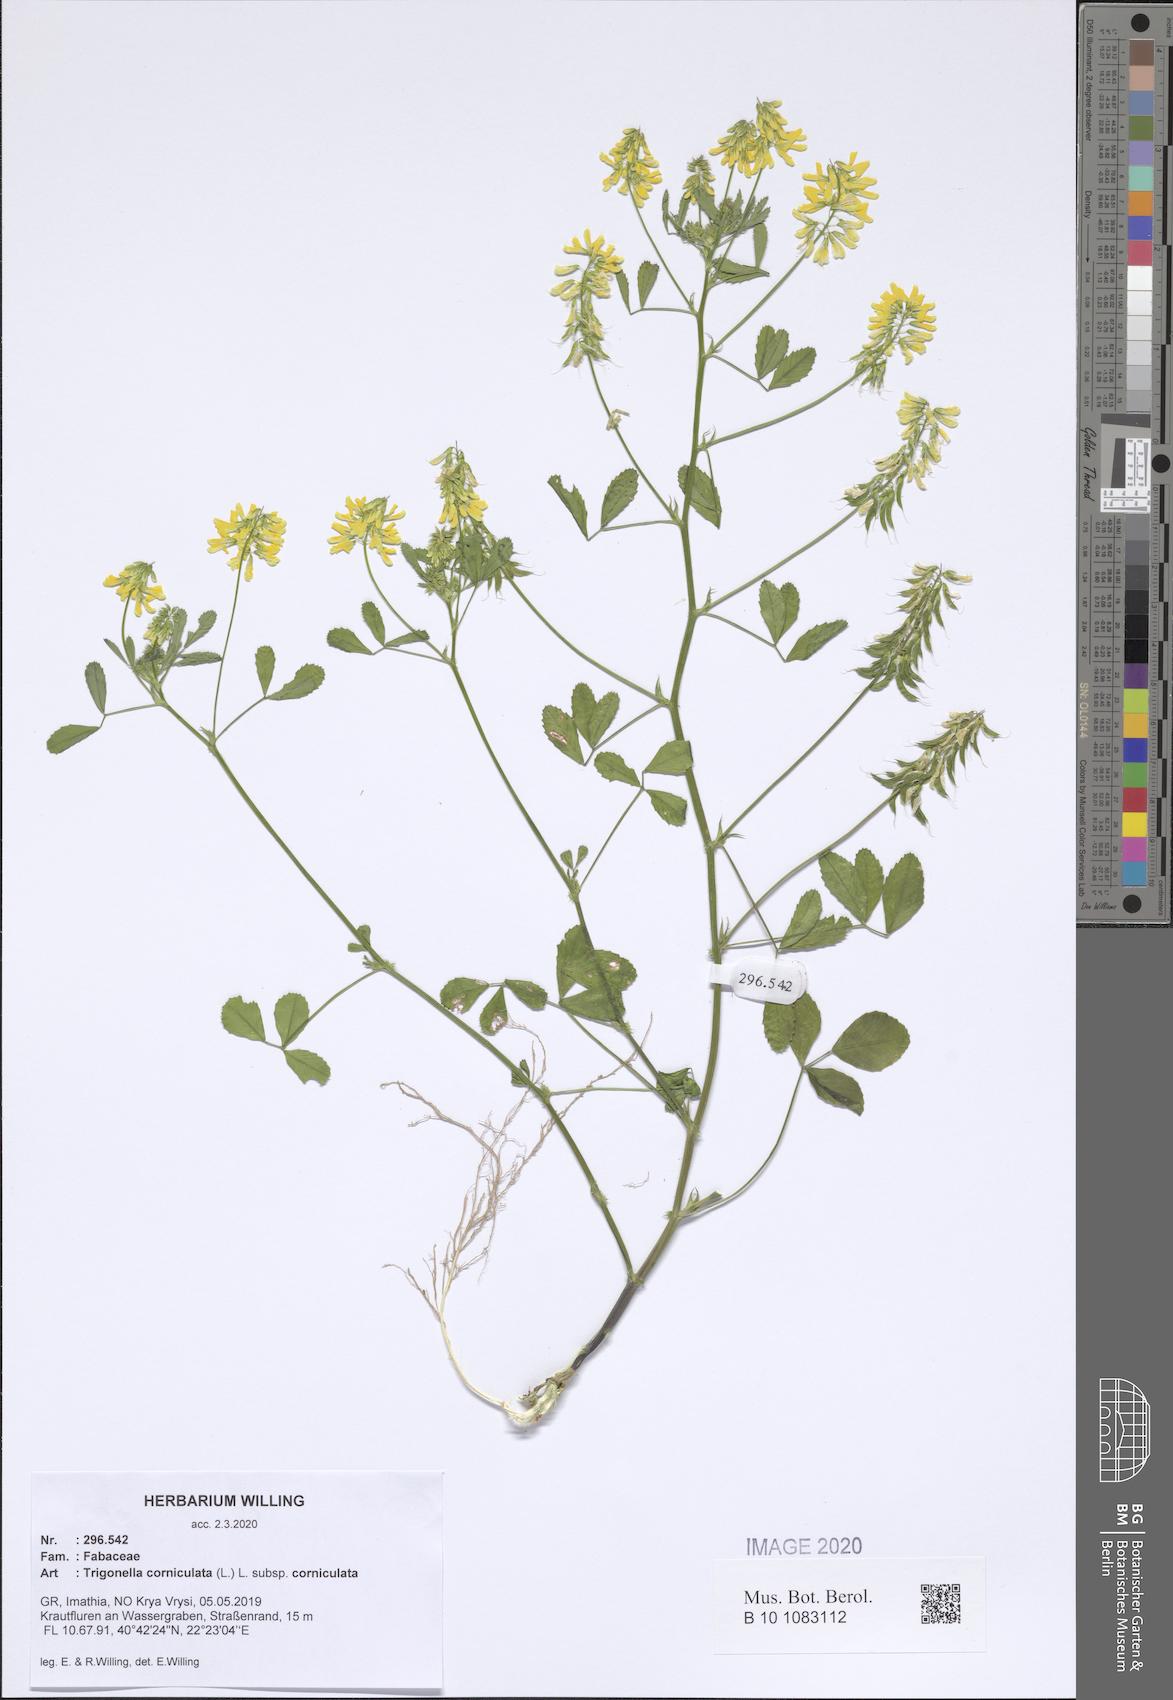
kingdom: Plantae
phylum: Tracheophyta
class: Magnoliopsida
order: Fabales
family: Fabaceae
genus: Trigonella
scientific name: Trigonella corniculata
